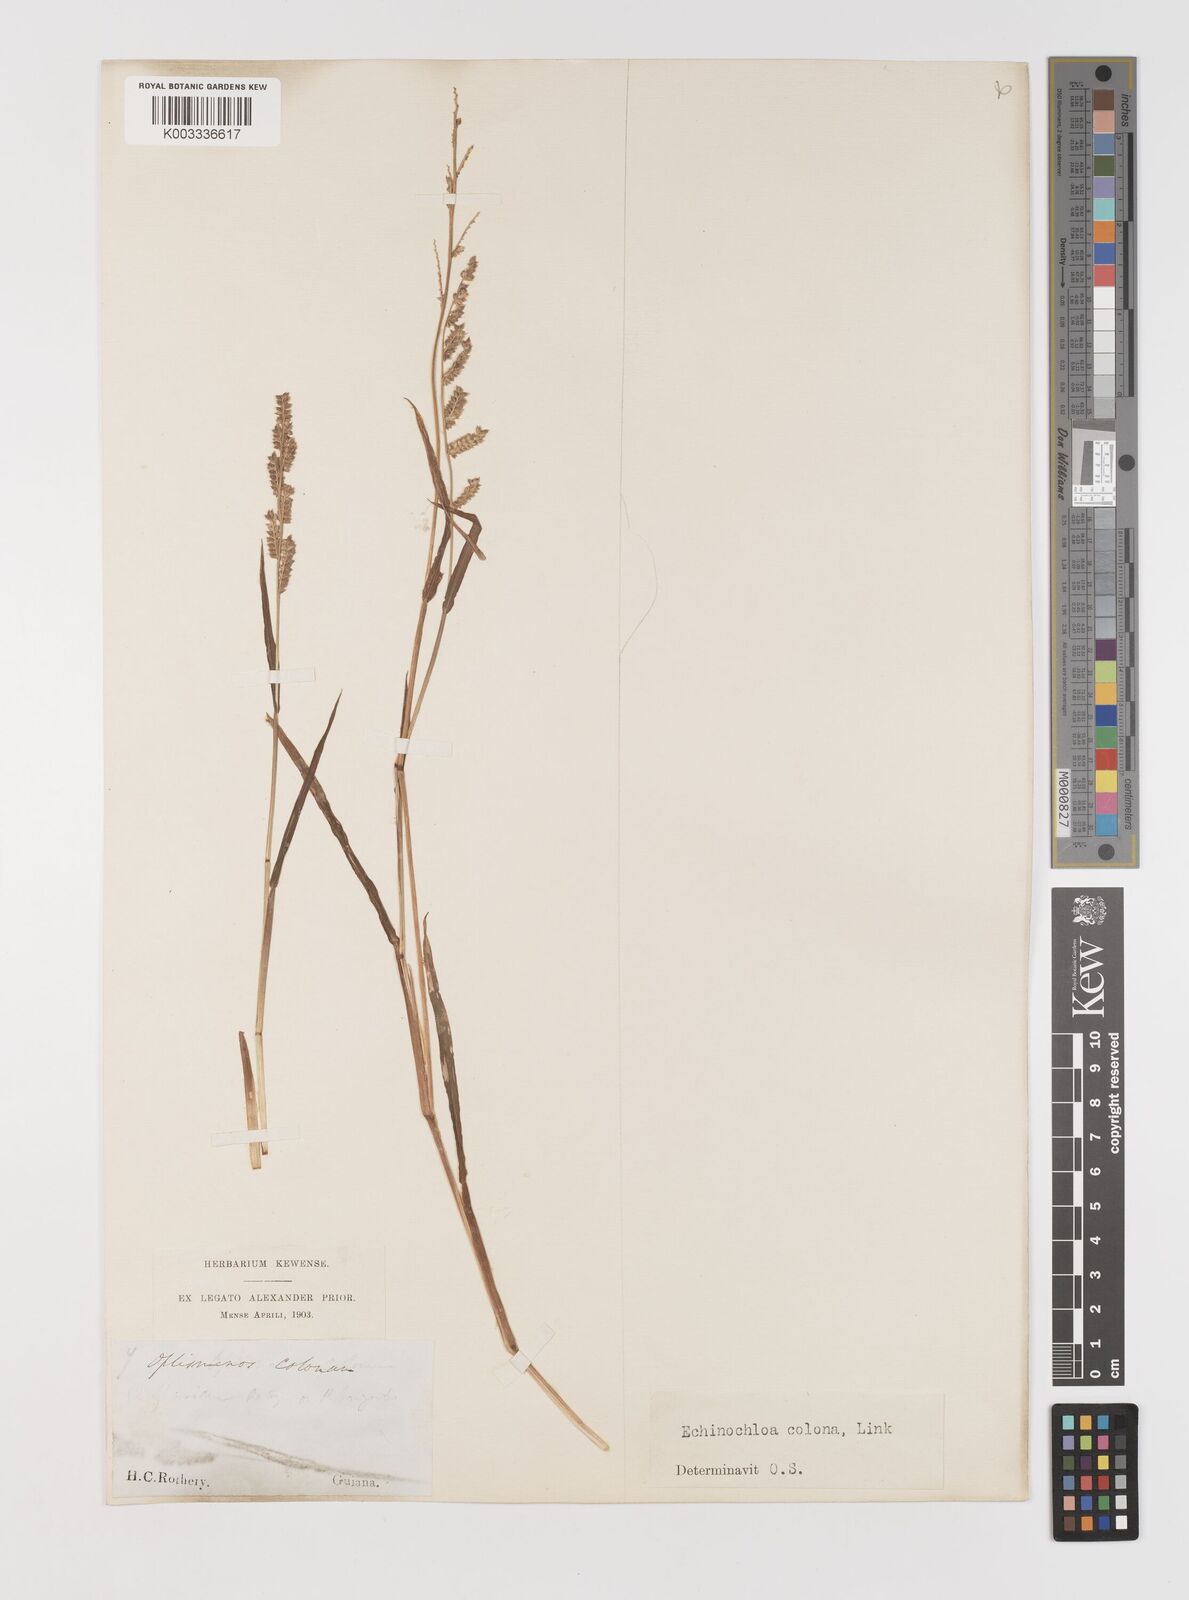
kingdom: Plantae
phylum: Tracheophyta
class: Liliopsida
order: Poales
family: Poaceae
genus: Echinochloa
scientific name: Echinochloa colonum
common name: Jungle rice
